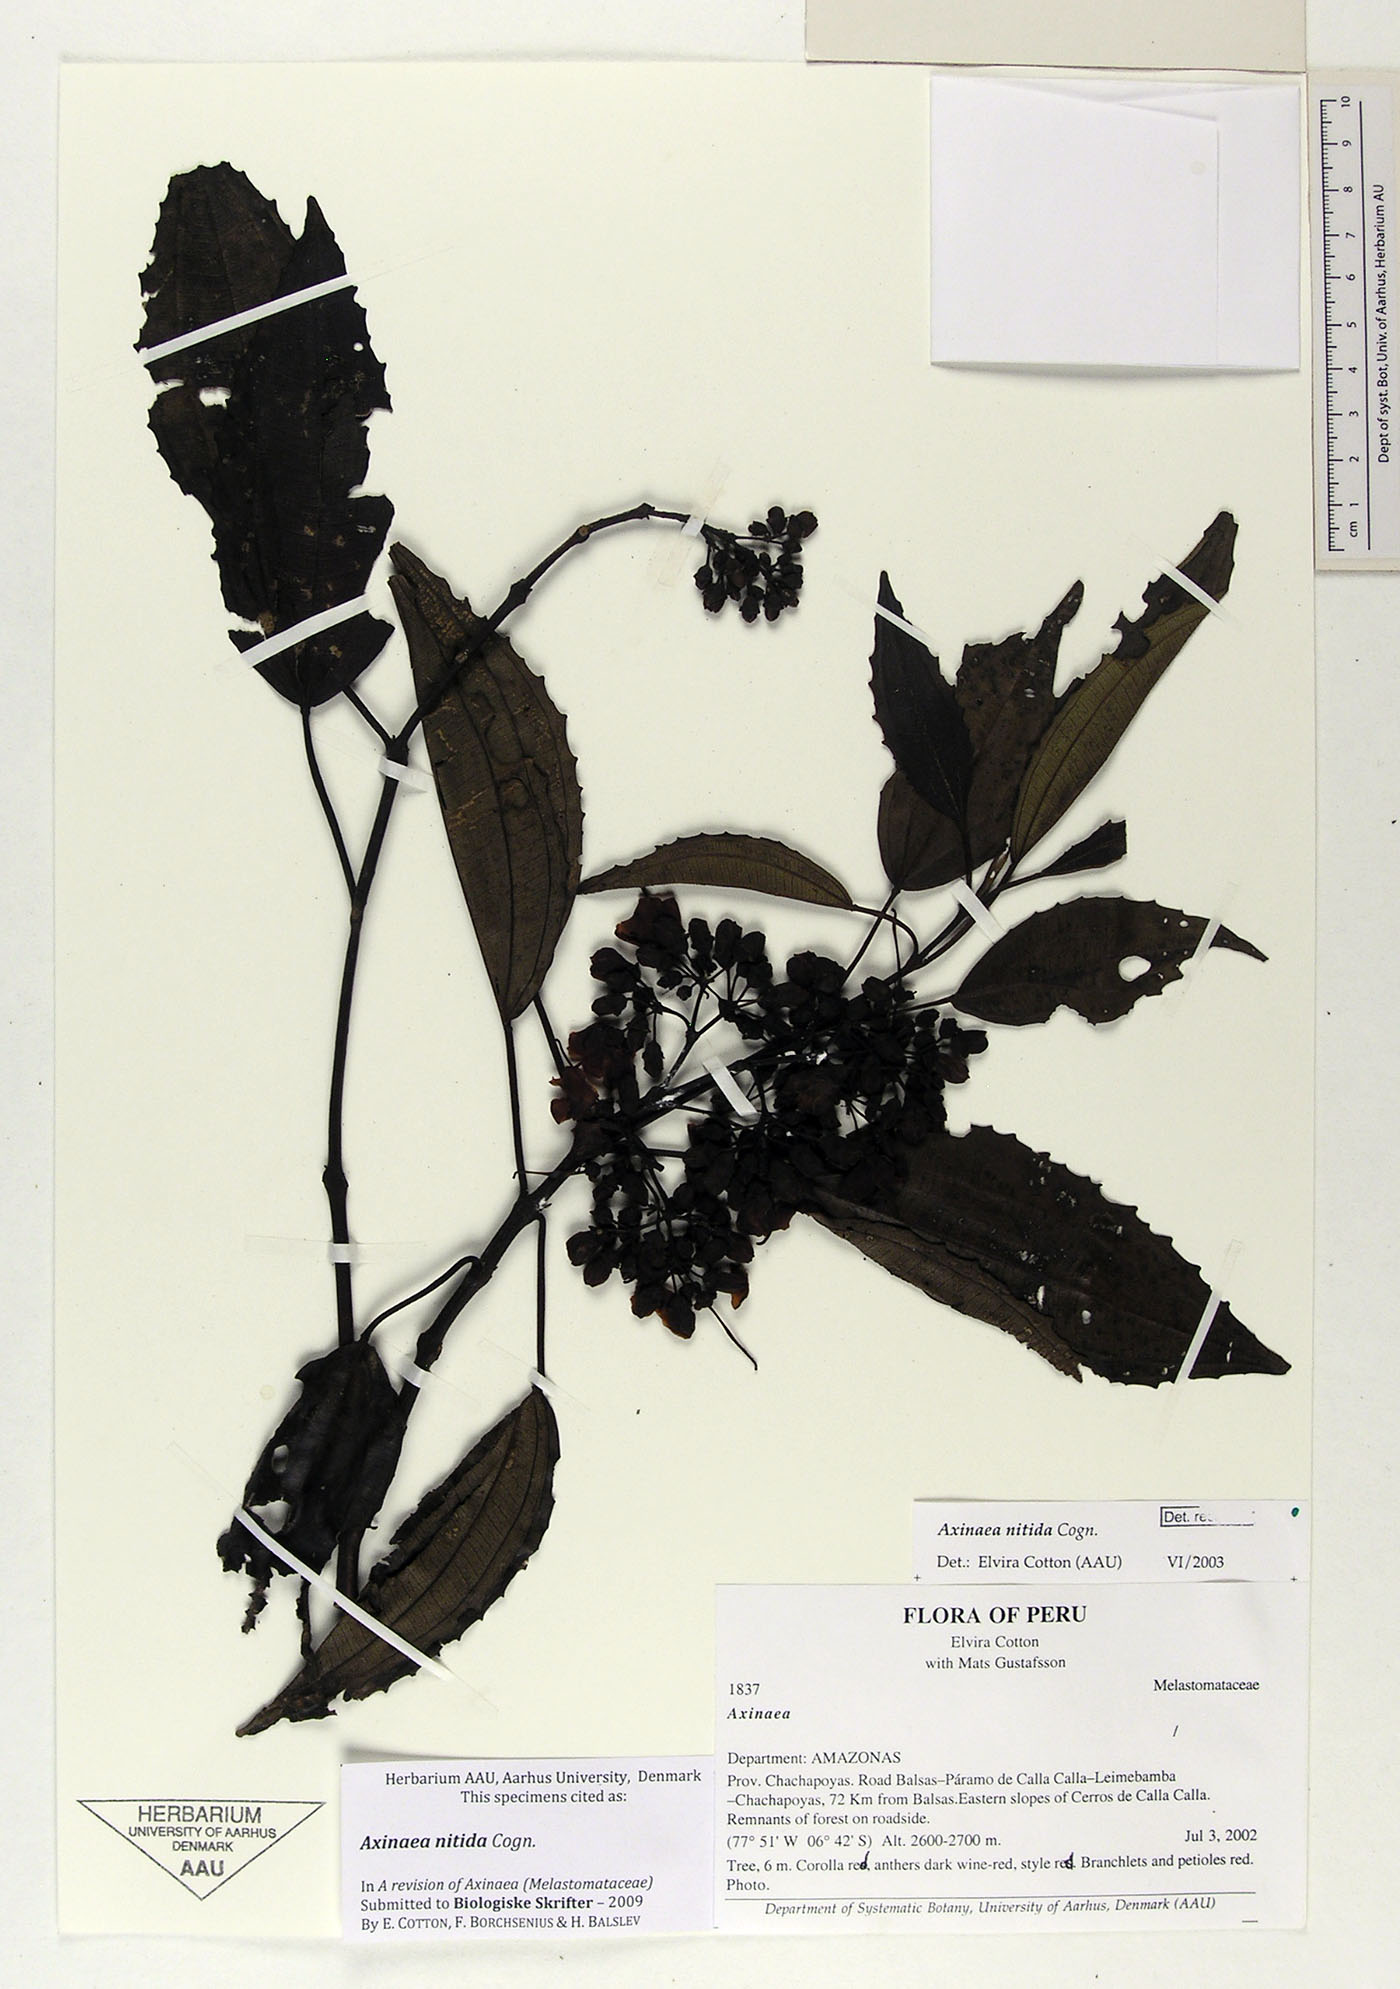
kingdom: Plantae
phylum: Tracheophyta
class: Magnoliopsida
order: Myrtales
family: Melastomataceae
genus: Axinaea
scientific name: Axinaea nitida
